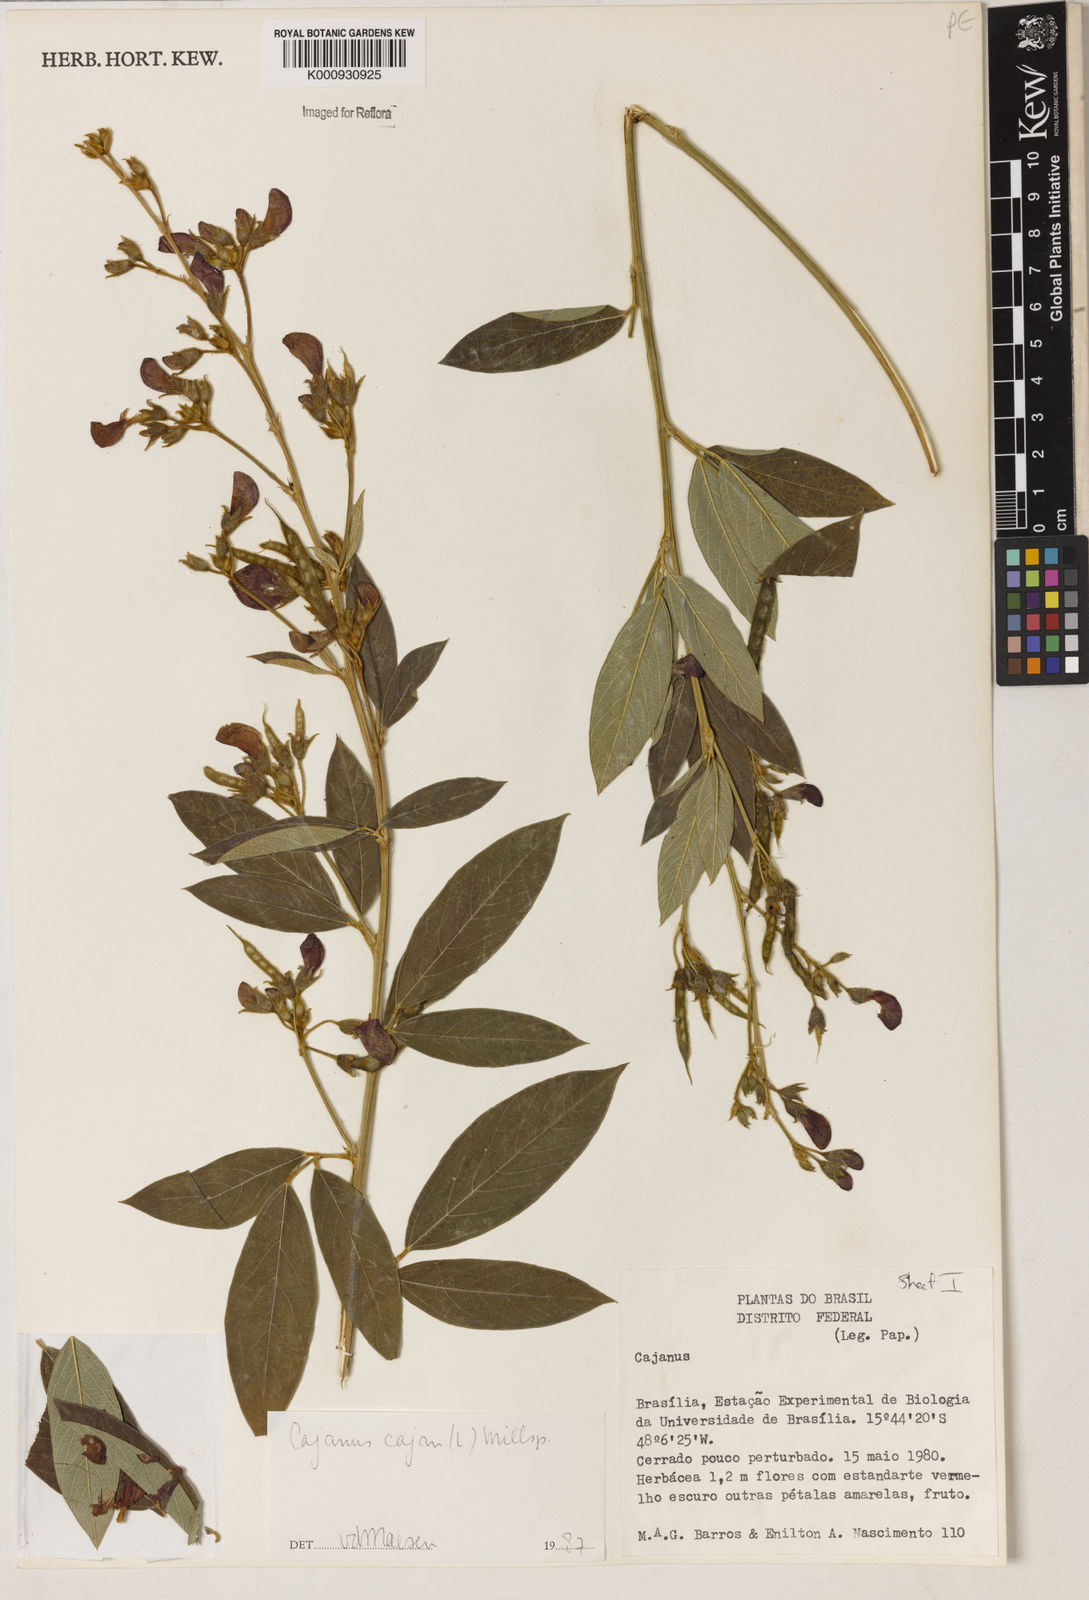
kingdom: Plantae
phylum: Tracheophyta
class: Magnoliopsida
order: Fabales
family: Fabaceae
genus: Cajanus
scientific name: Cajanus
